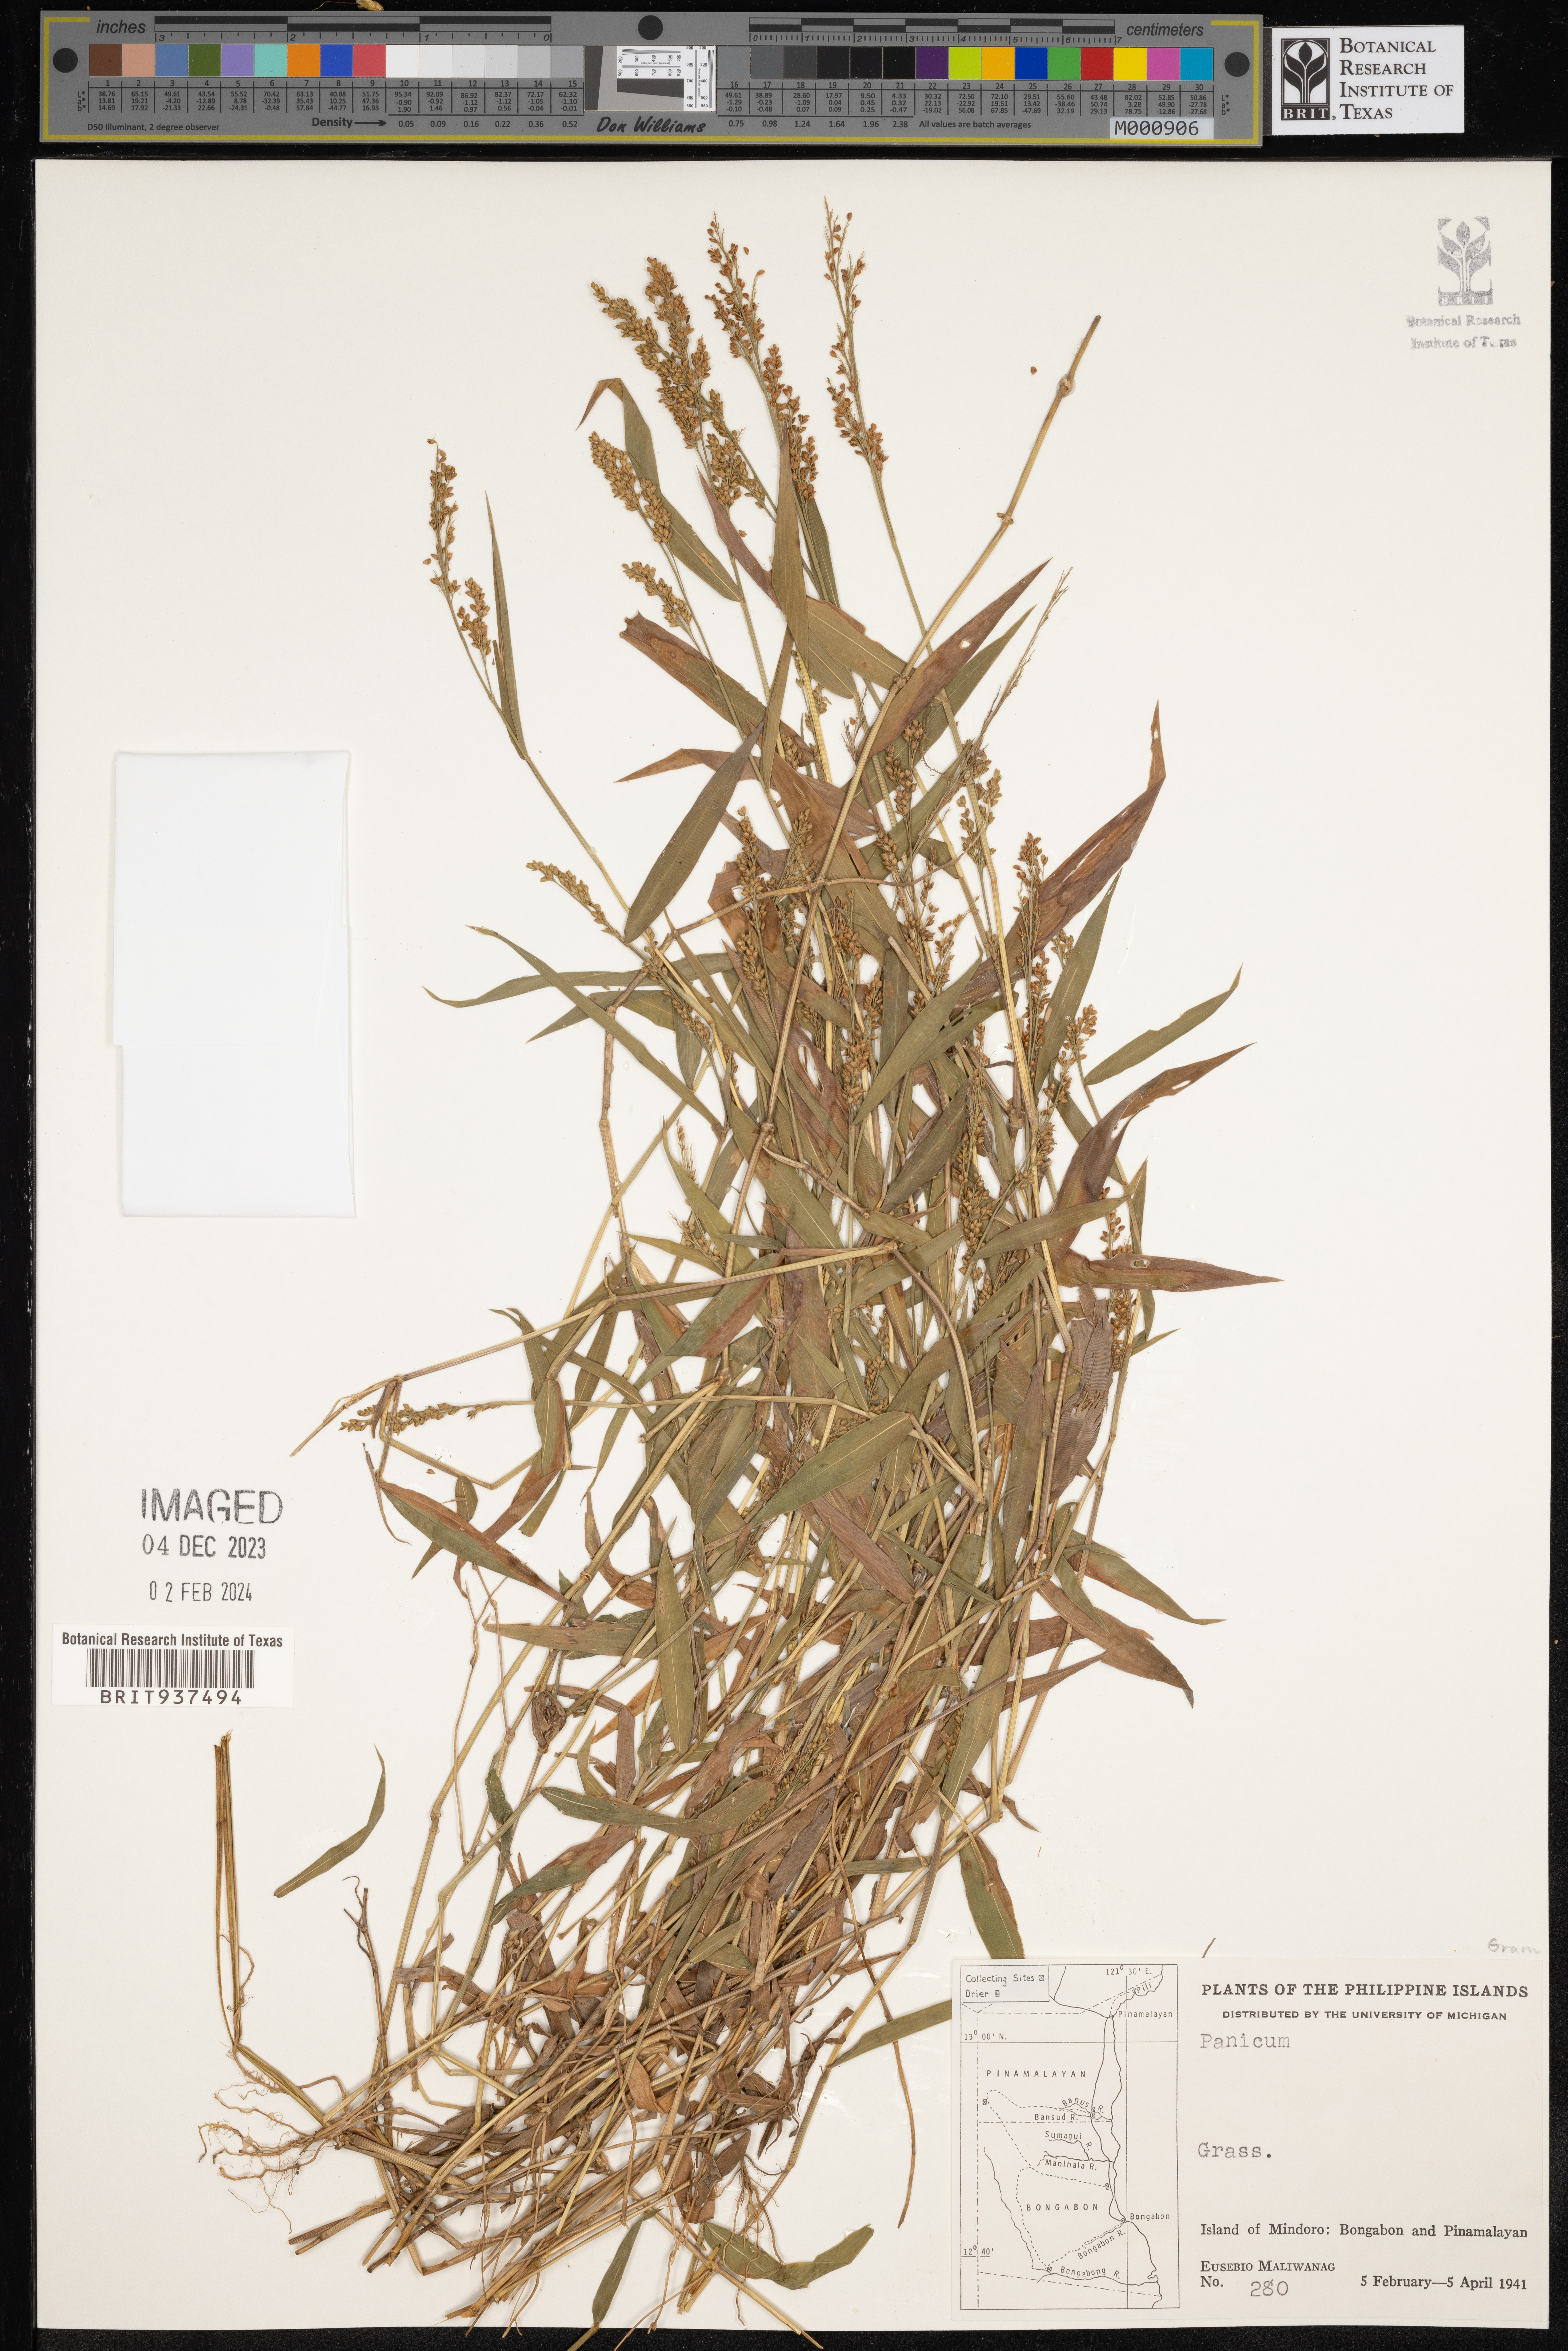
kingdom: Plantae
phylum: Tracheophyta
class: Liliopsida
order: Poales
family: Poaceae
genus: Panicum
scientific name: Panicum
